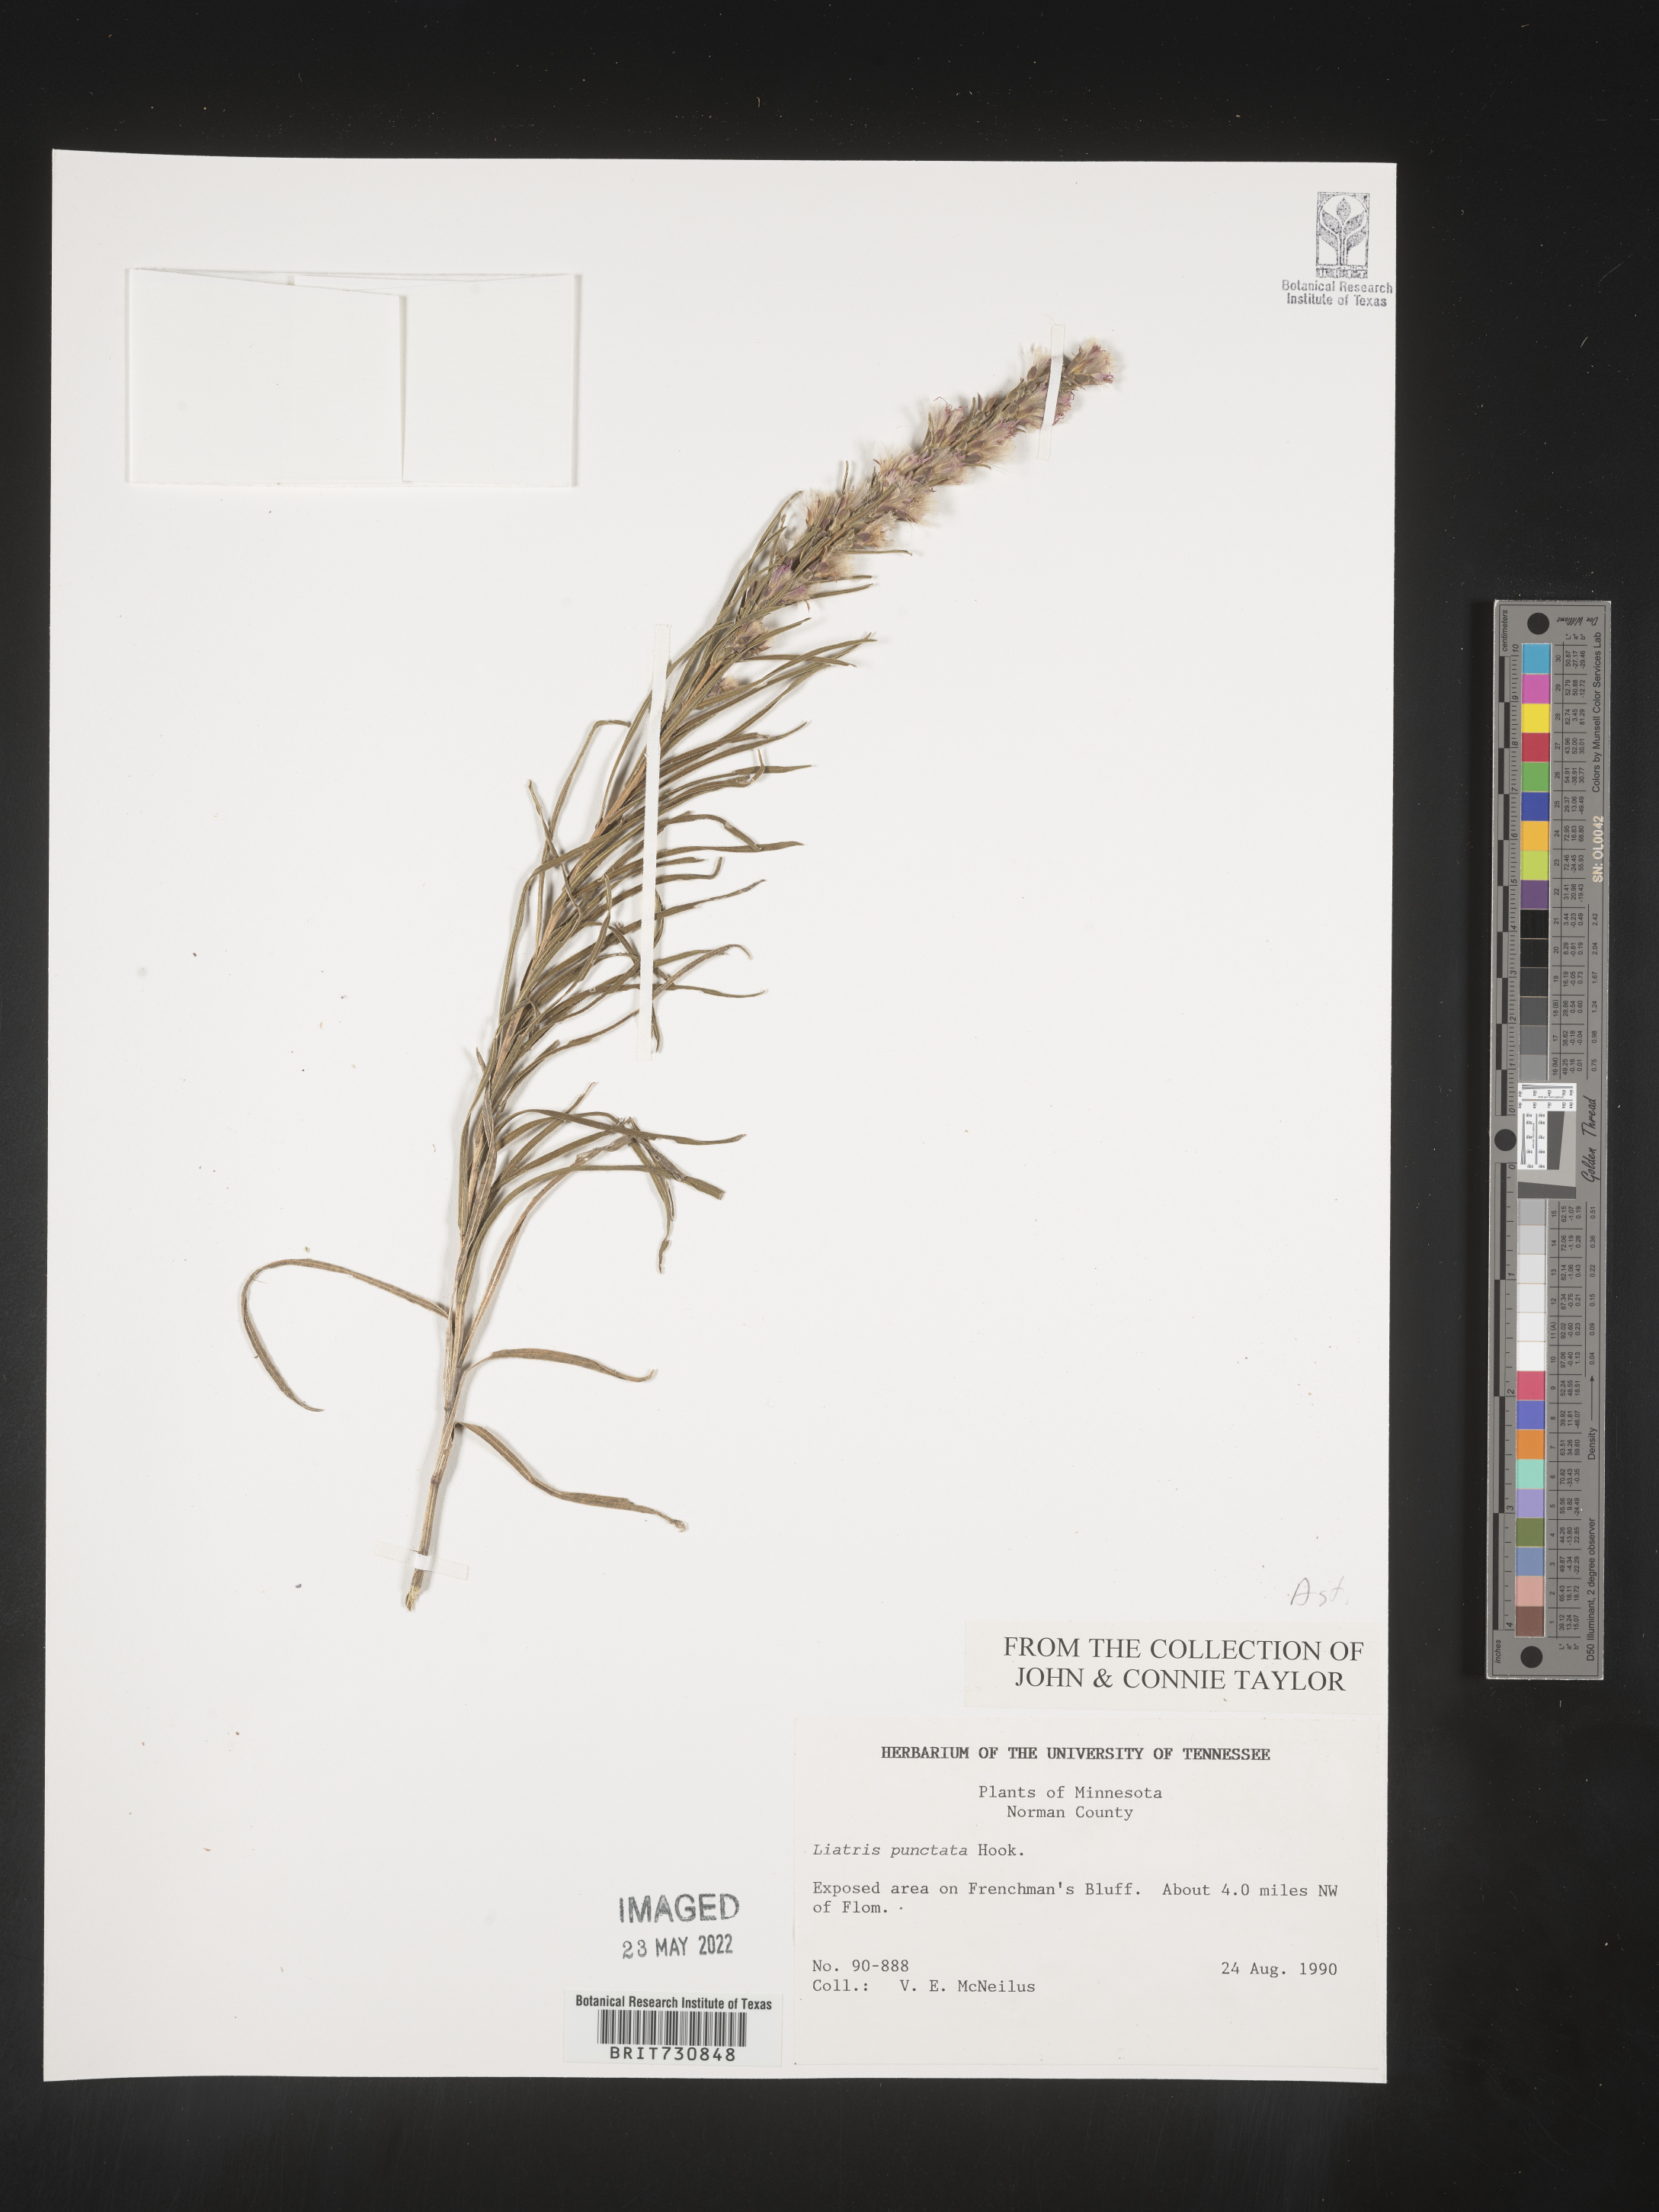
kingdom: Plantae
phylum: Tracheophyta
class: Magnoliopsida
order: Asterales
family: Asteraceae
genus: Liatris
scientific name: Liatris punctata
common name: Dotted gayfeather
